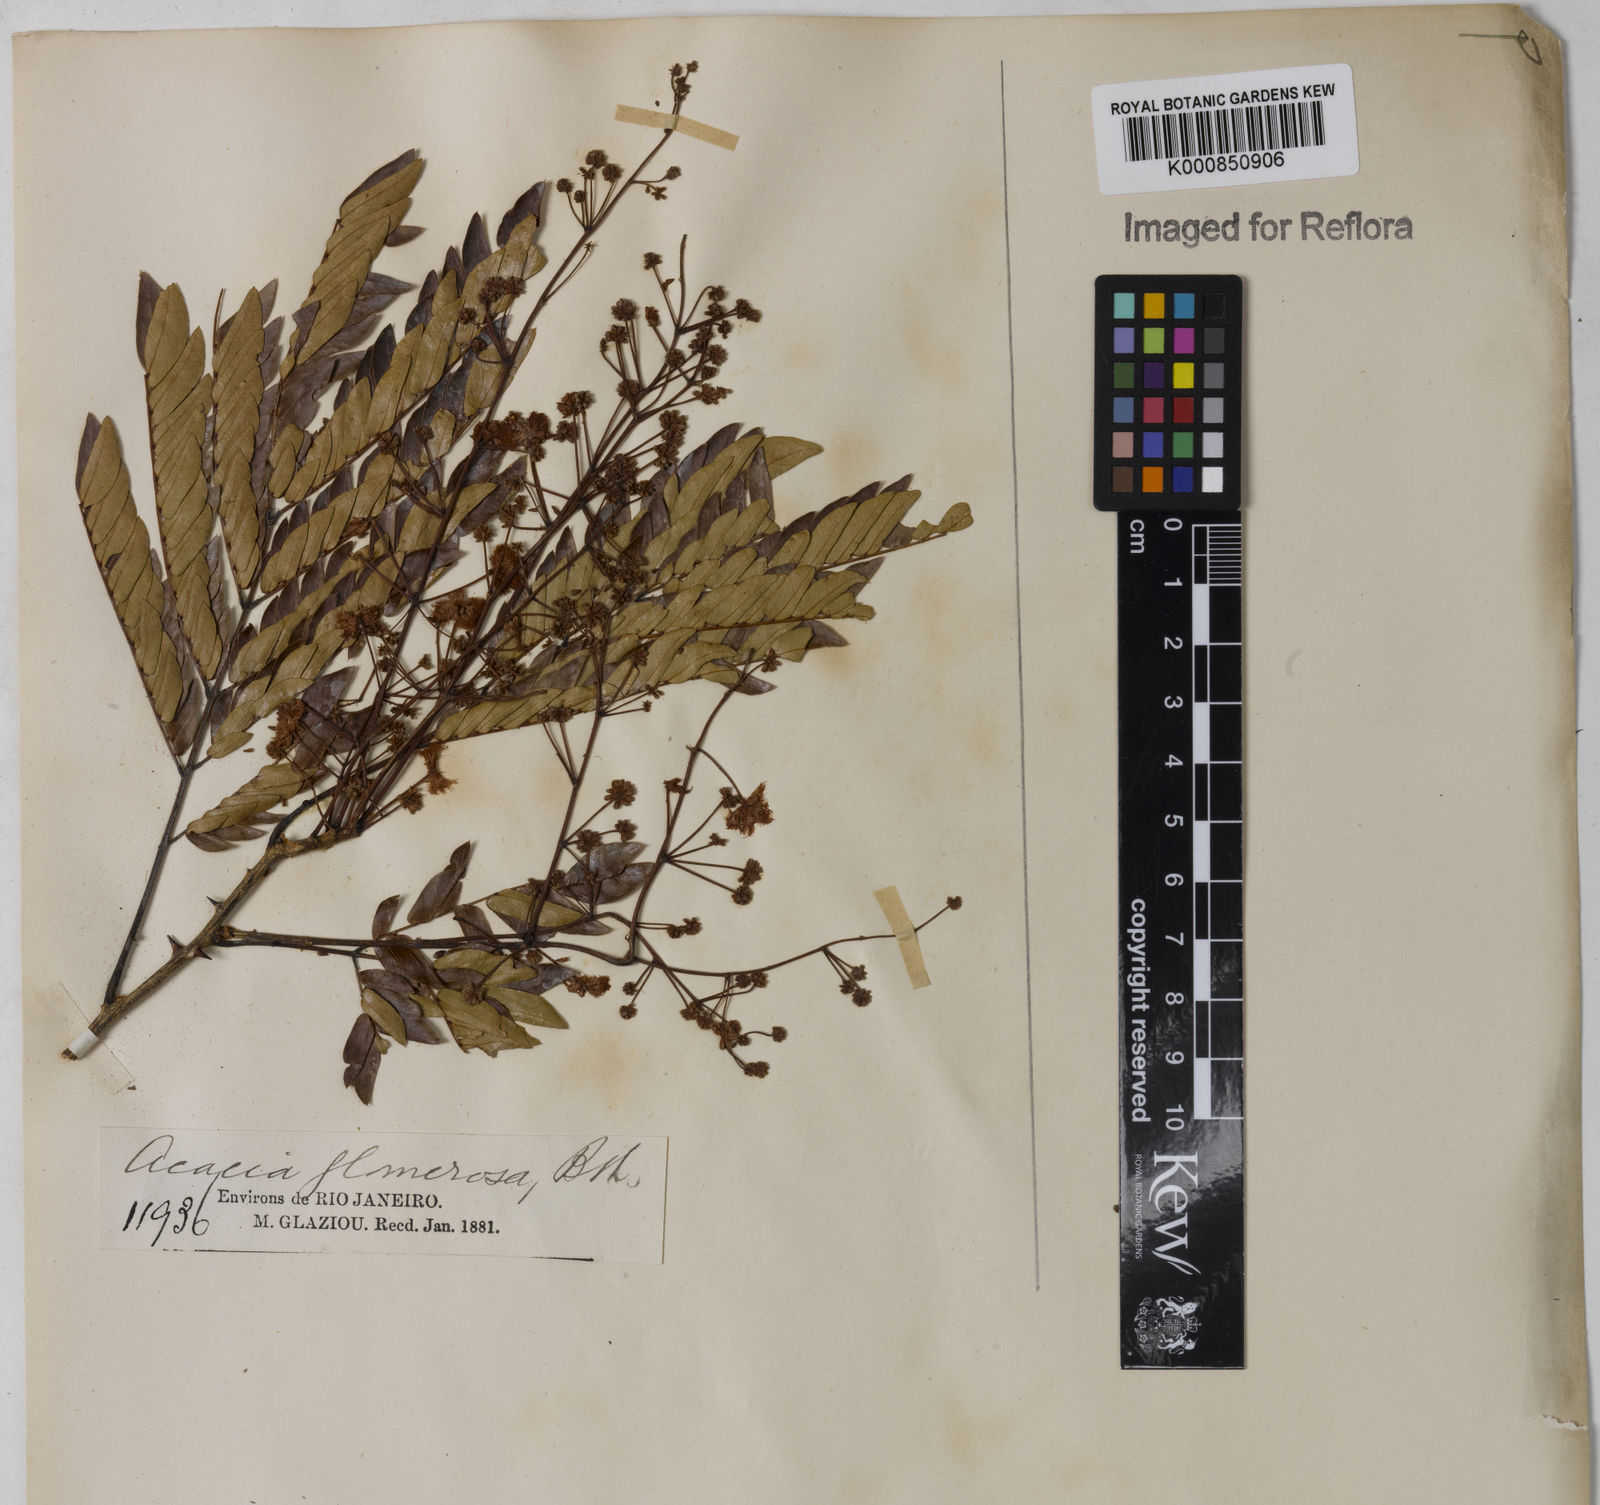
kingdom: Plantae
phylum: Tracheophyta
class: Magnoliopsida
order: Fabales
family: Fabaceae
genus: Senegalia
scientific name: Senegalia polyphylla
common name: White-tamarind
